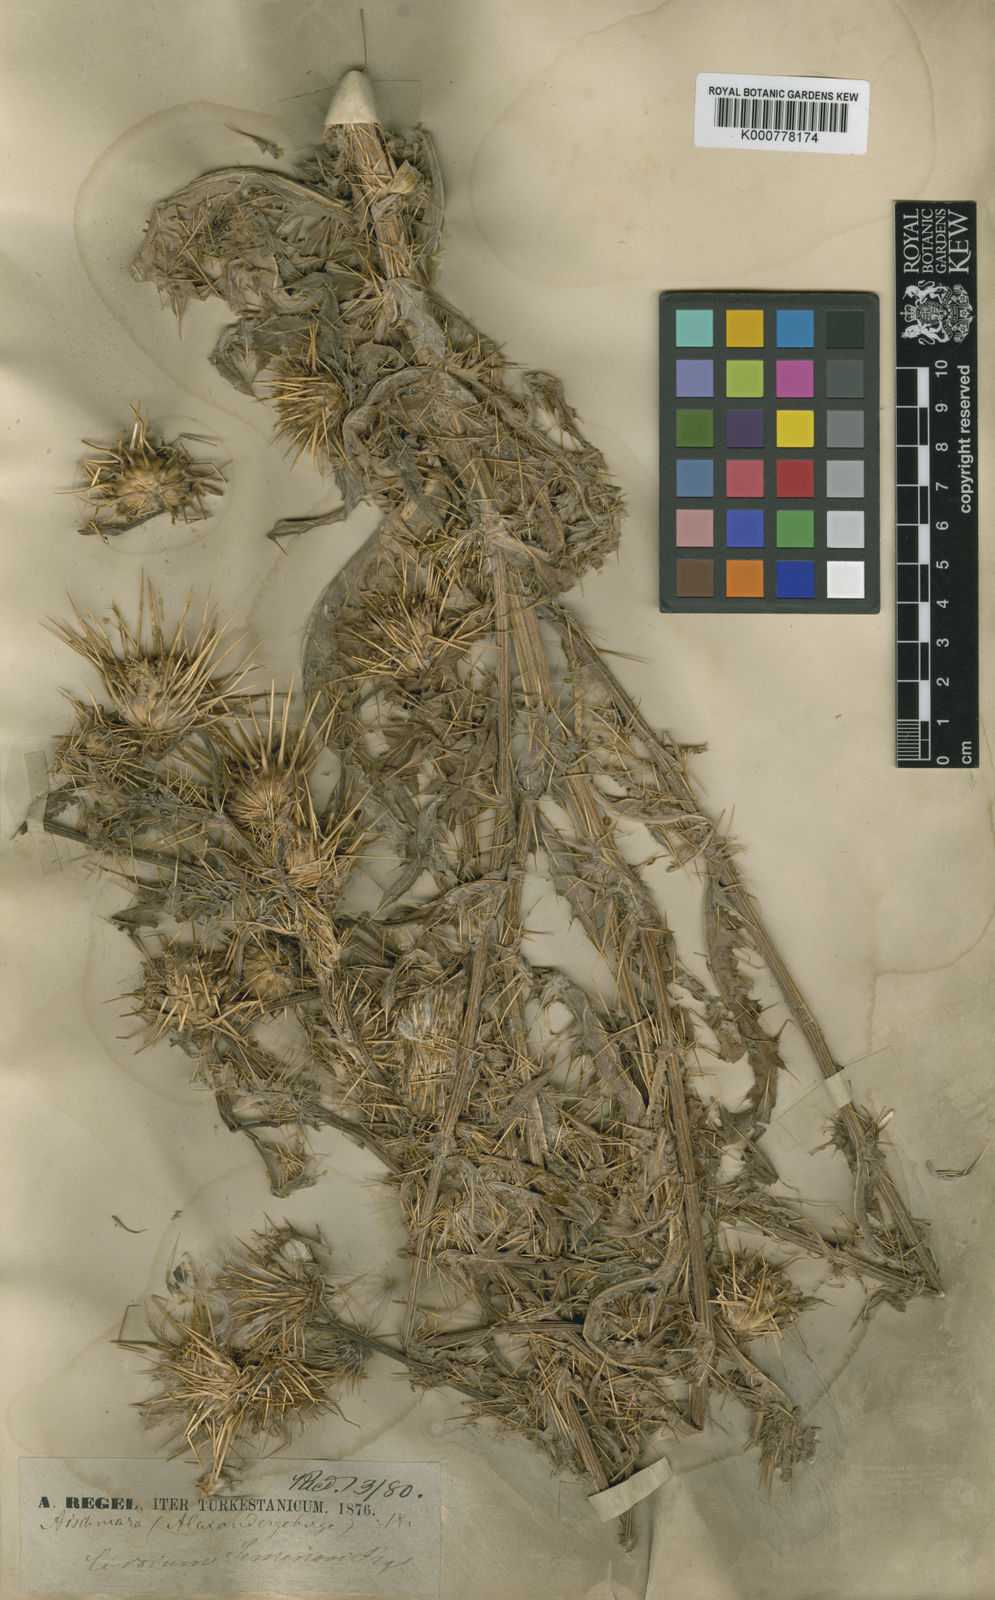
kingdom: Plantae
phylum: Tracheophyta
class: Magnoliopsida
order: Asterales
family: Asteraceae
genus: Cirsium
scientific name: Cirsium
